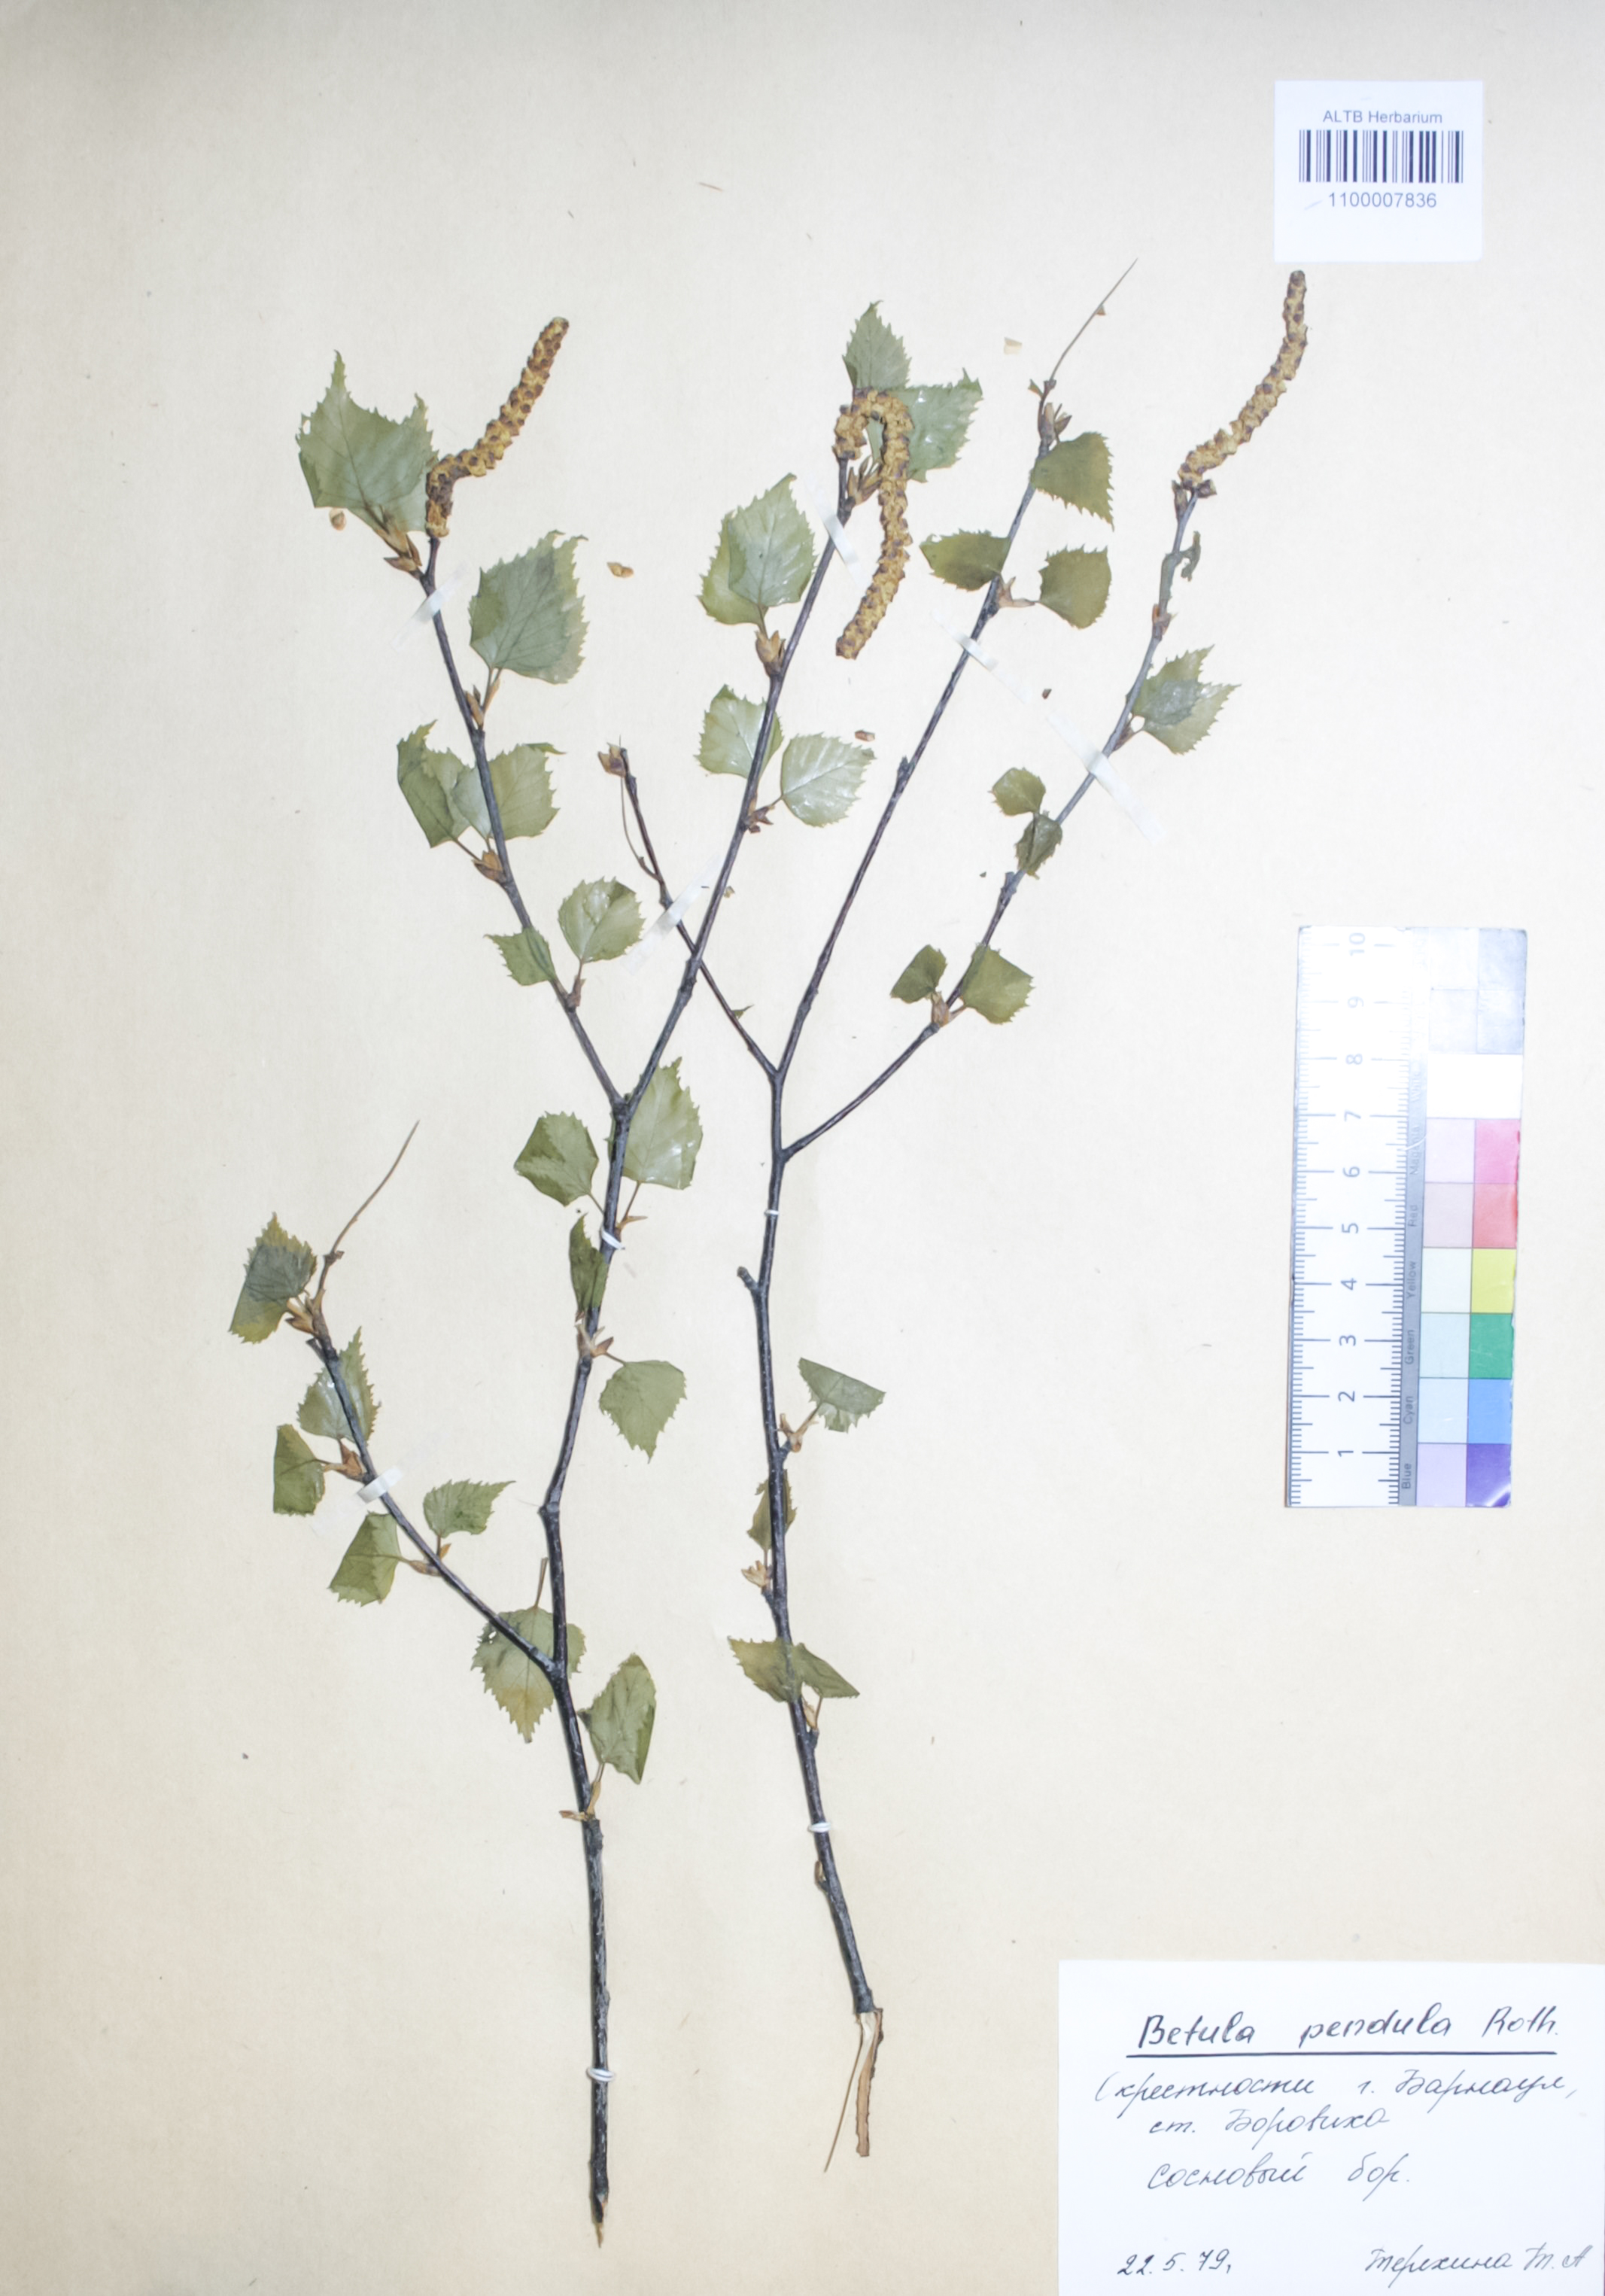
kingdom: Plantae
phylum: Tracheophyta
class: Magnoliopsida
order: Fagales
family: Betulaceae
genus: Betula
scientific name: Betula pendula
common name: Silver birch
